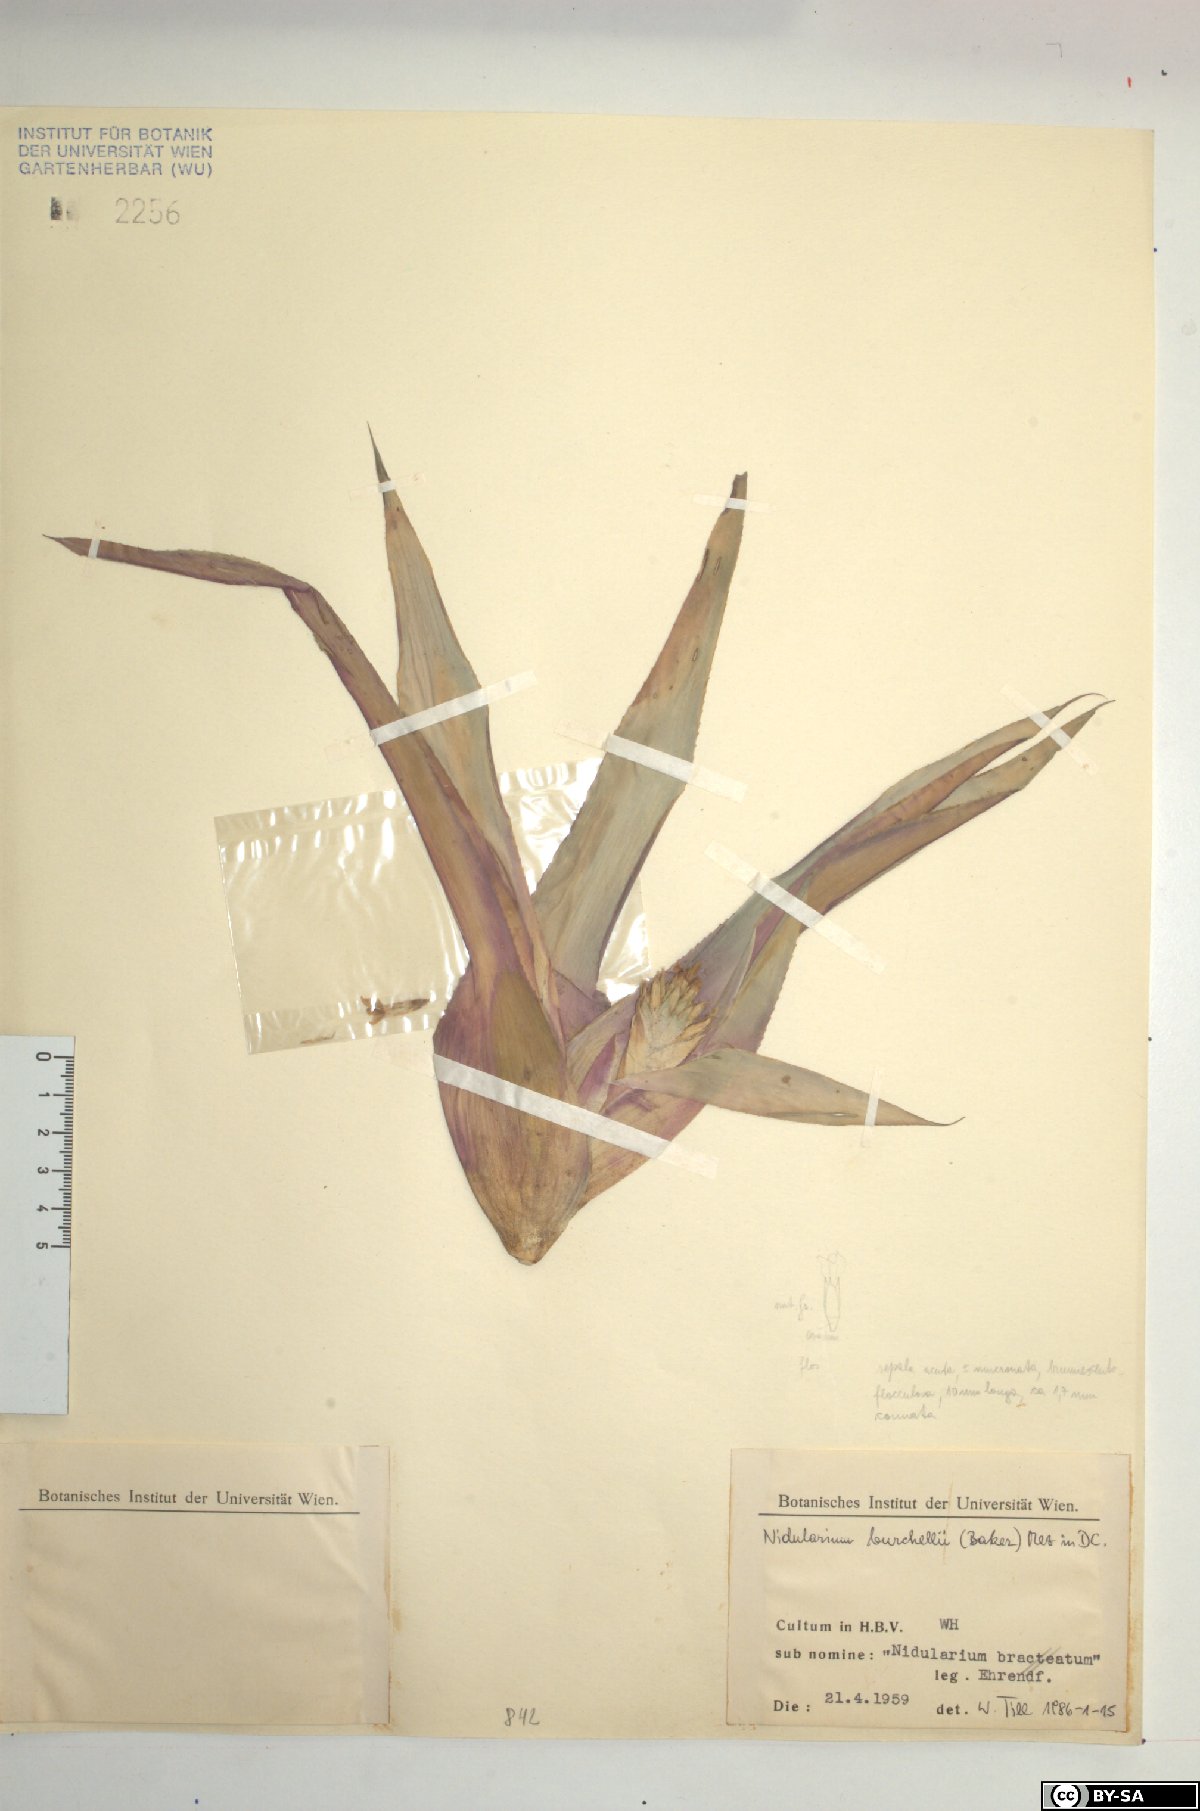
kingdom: Plantae
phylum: Tracheophyta
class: Liliopsida
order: Poales
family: Bromeliaceae
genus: Canistropsis
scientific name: Canistropsis burchellii
